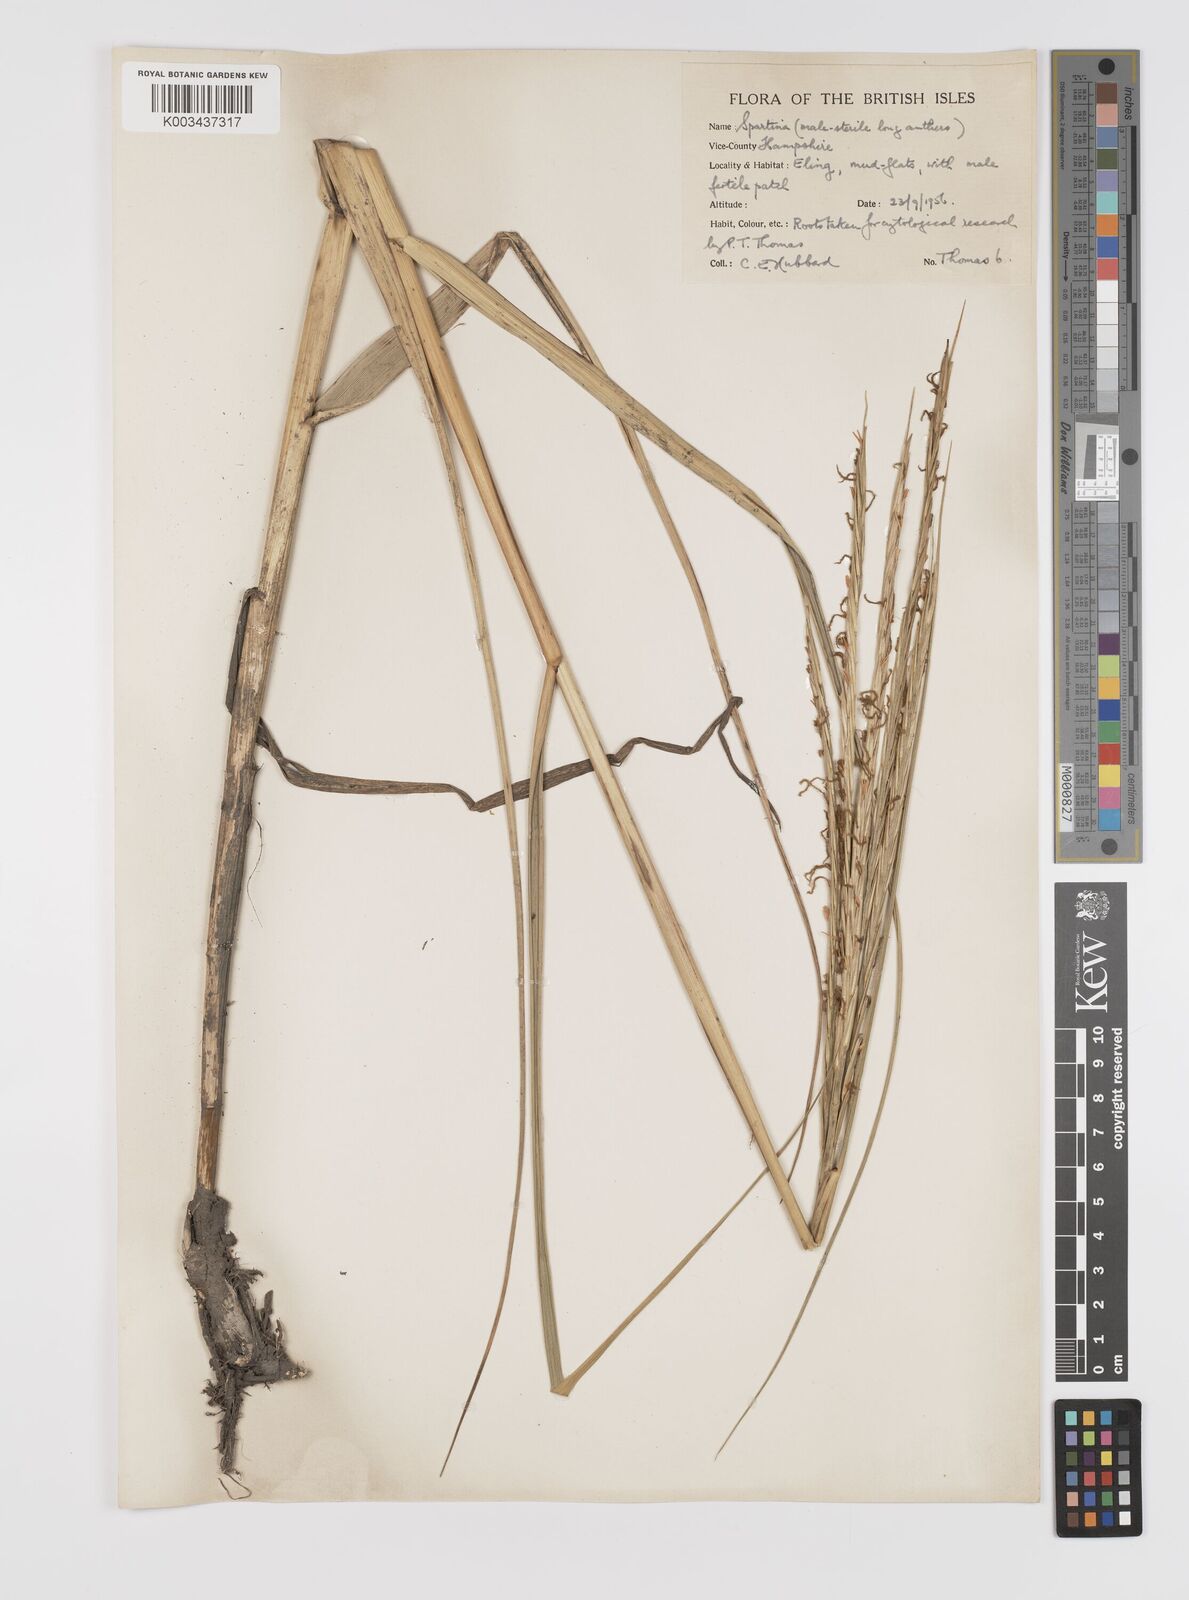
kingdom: Plantae
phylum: Tracheophyta
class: Liliopsida
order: Poales
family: Poaceae
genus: Sporobolus
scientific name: Sporobolus townsendii
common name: Townsend's cordgrass
